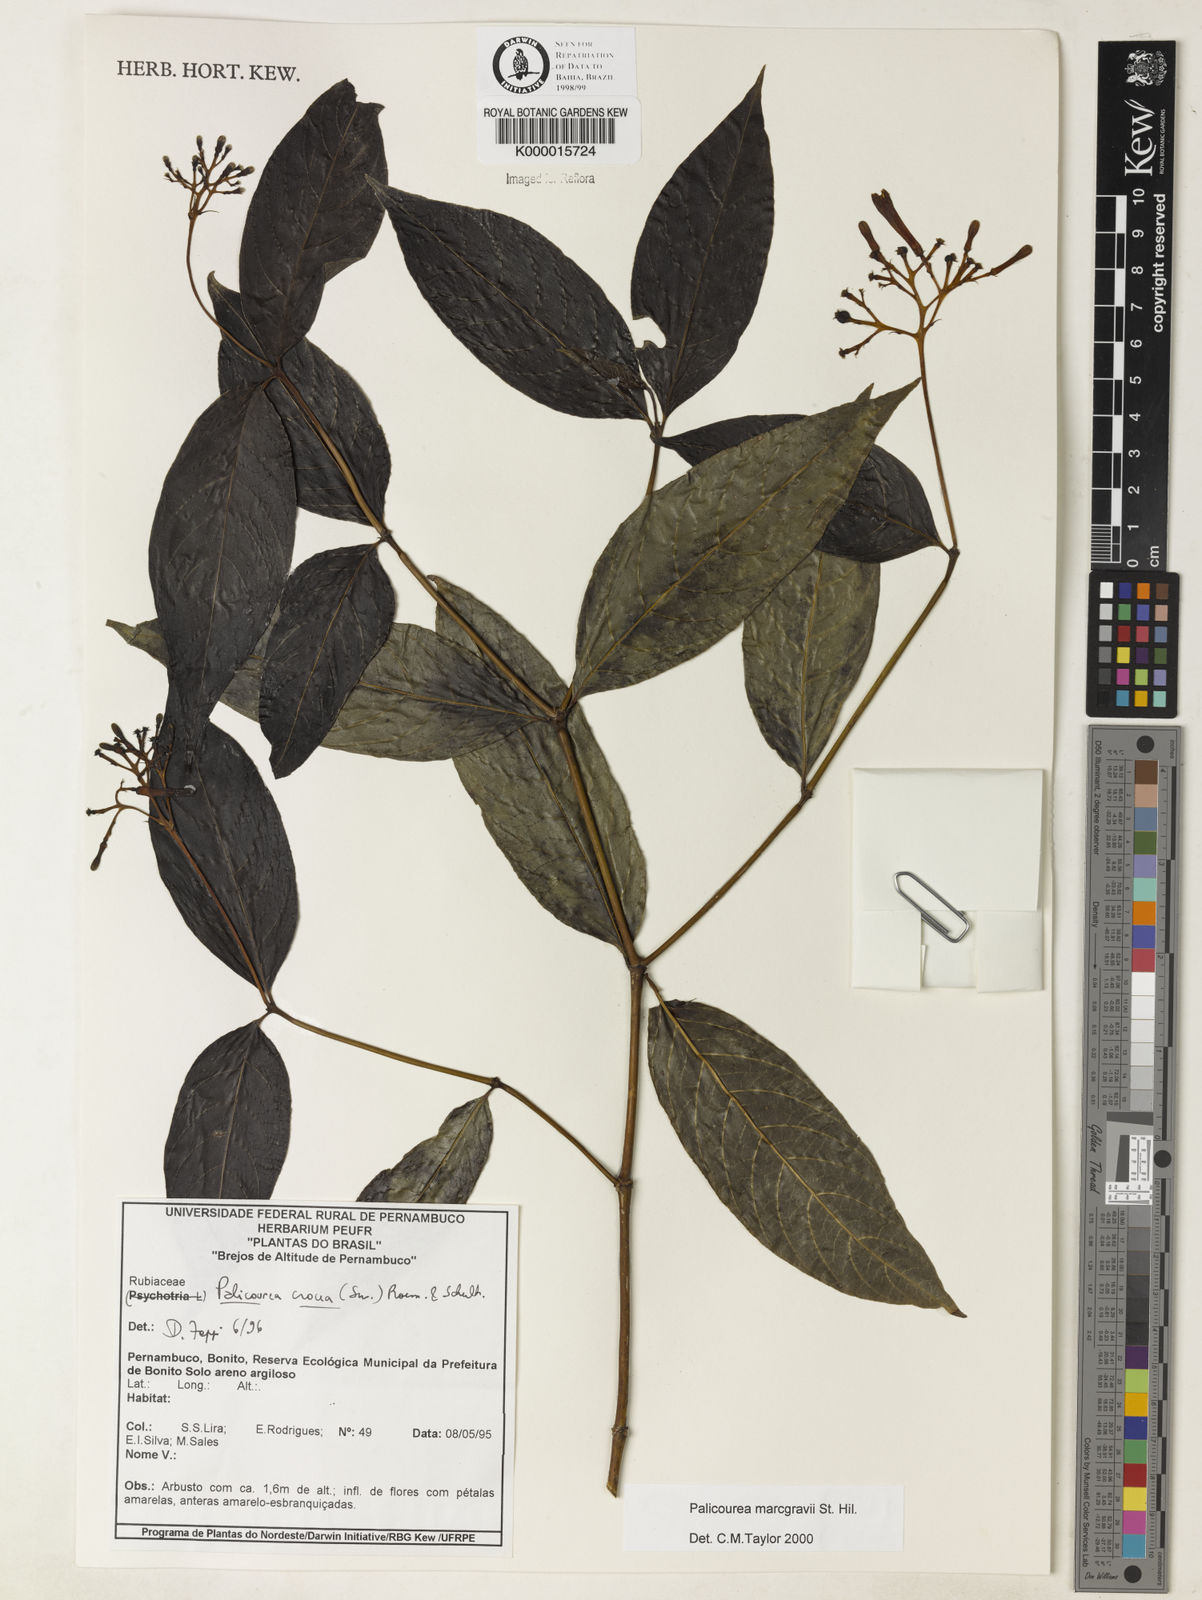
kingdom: Plantae
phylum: Tracheophyta
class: Magnoliopsida
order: Gentianales
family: Rubiaceae
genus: Palicourea
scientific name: Palicourea marcgravii
